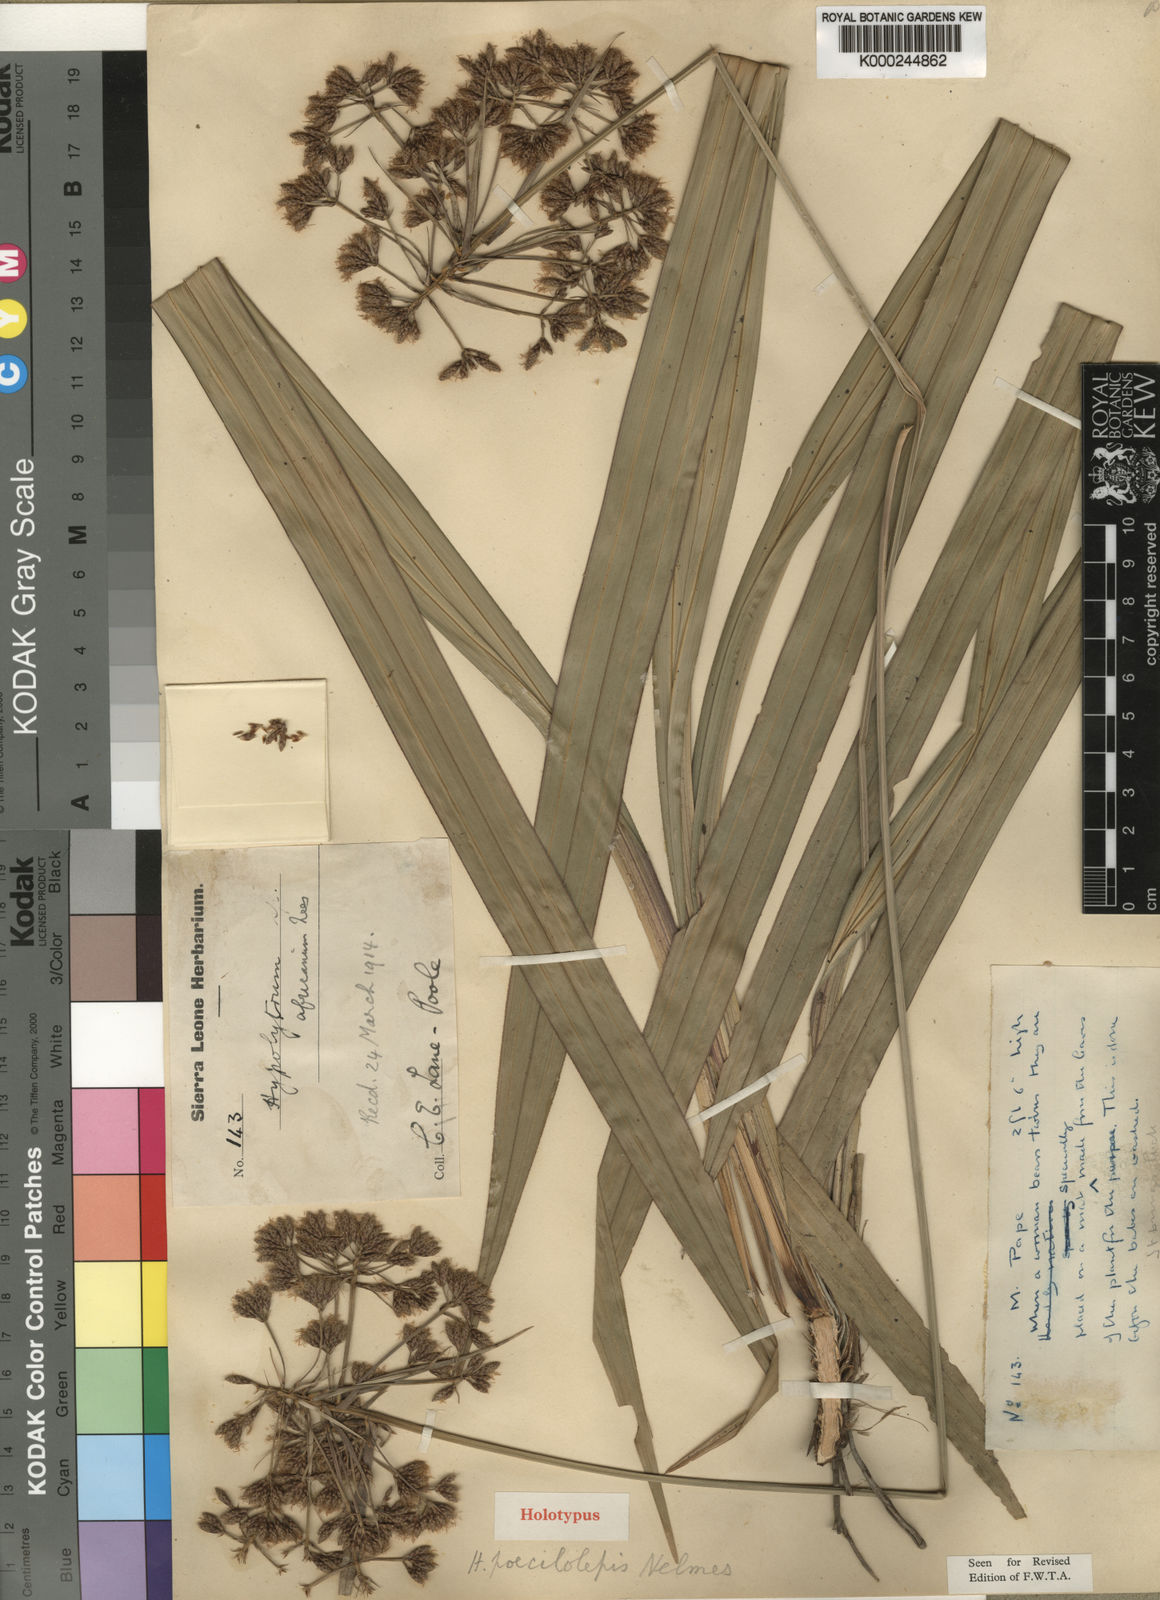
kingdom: Plantae
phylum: Tracheophyta
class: Liliopsida
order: Poales
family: Cyperaceae
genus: Hypolytrum
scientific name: Hypolytrum nemorum
